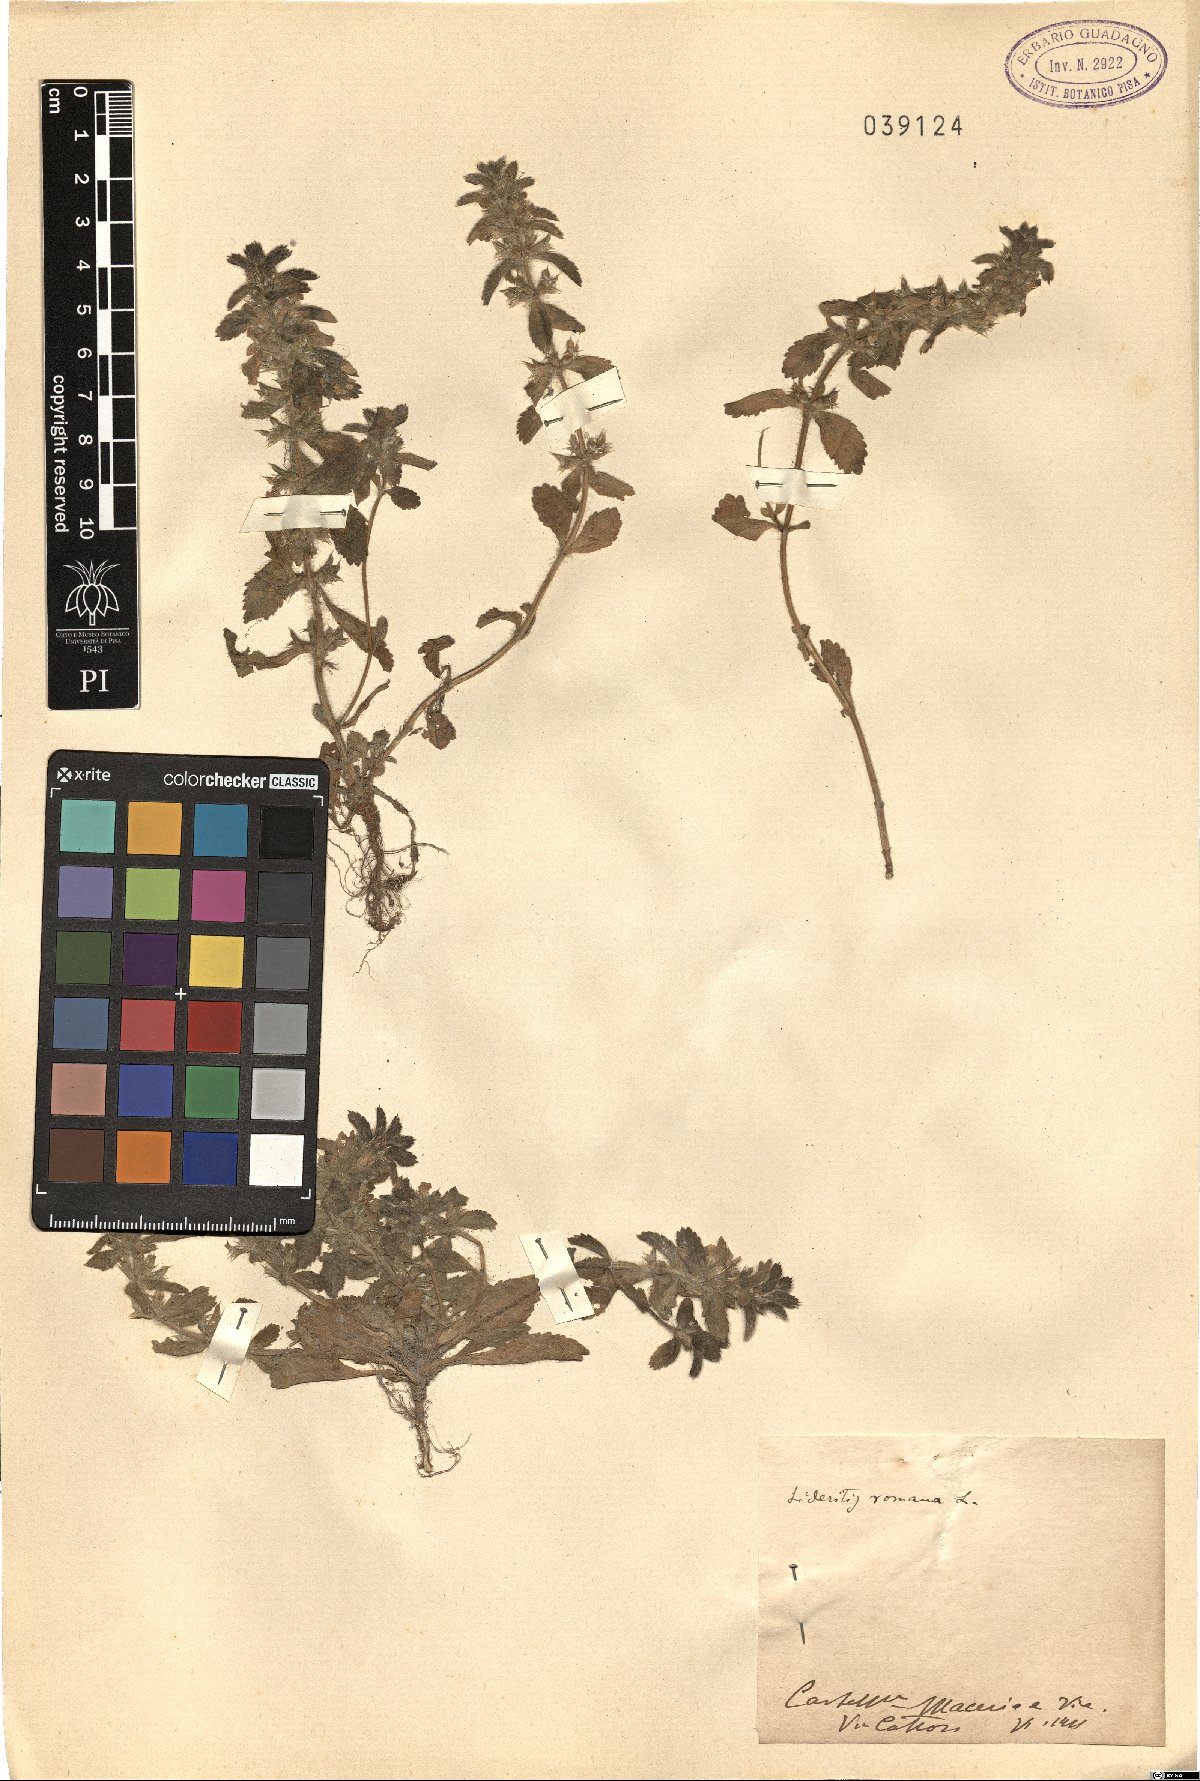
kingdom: Plantae
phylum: Tracheophyta
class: Magnoliopsida
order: Lamiales
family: Lamiaceae
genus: Sideritis
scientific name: Sideritis romana
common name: Simplebeak ironwort
